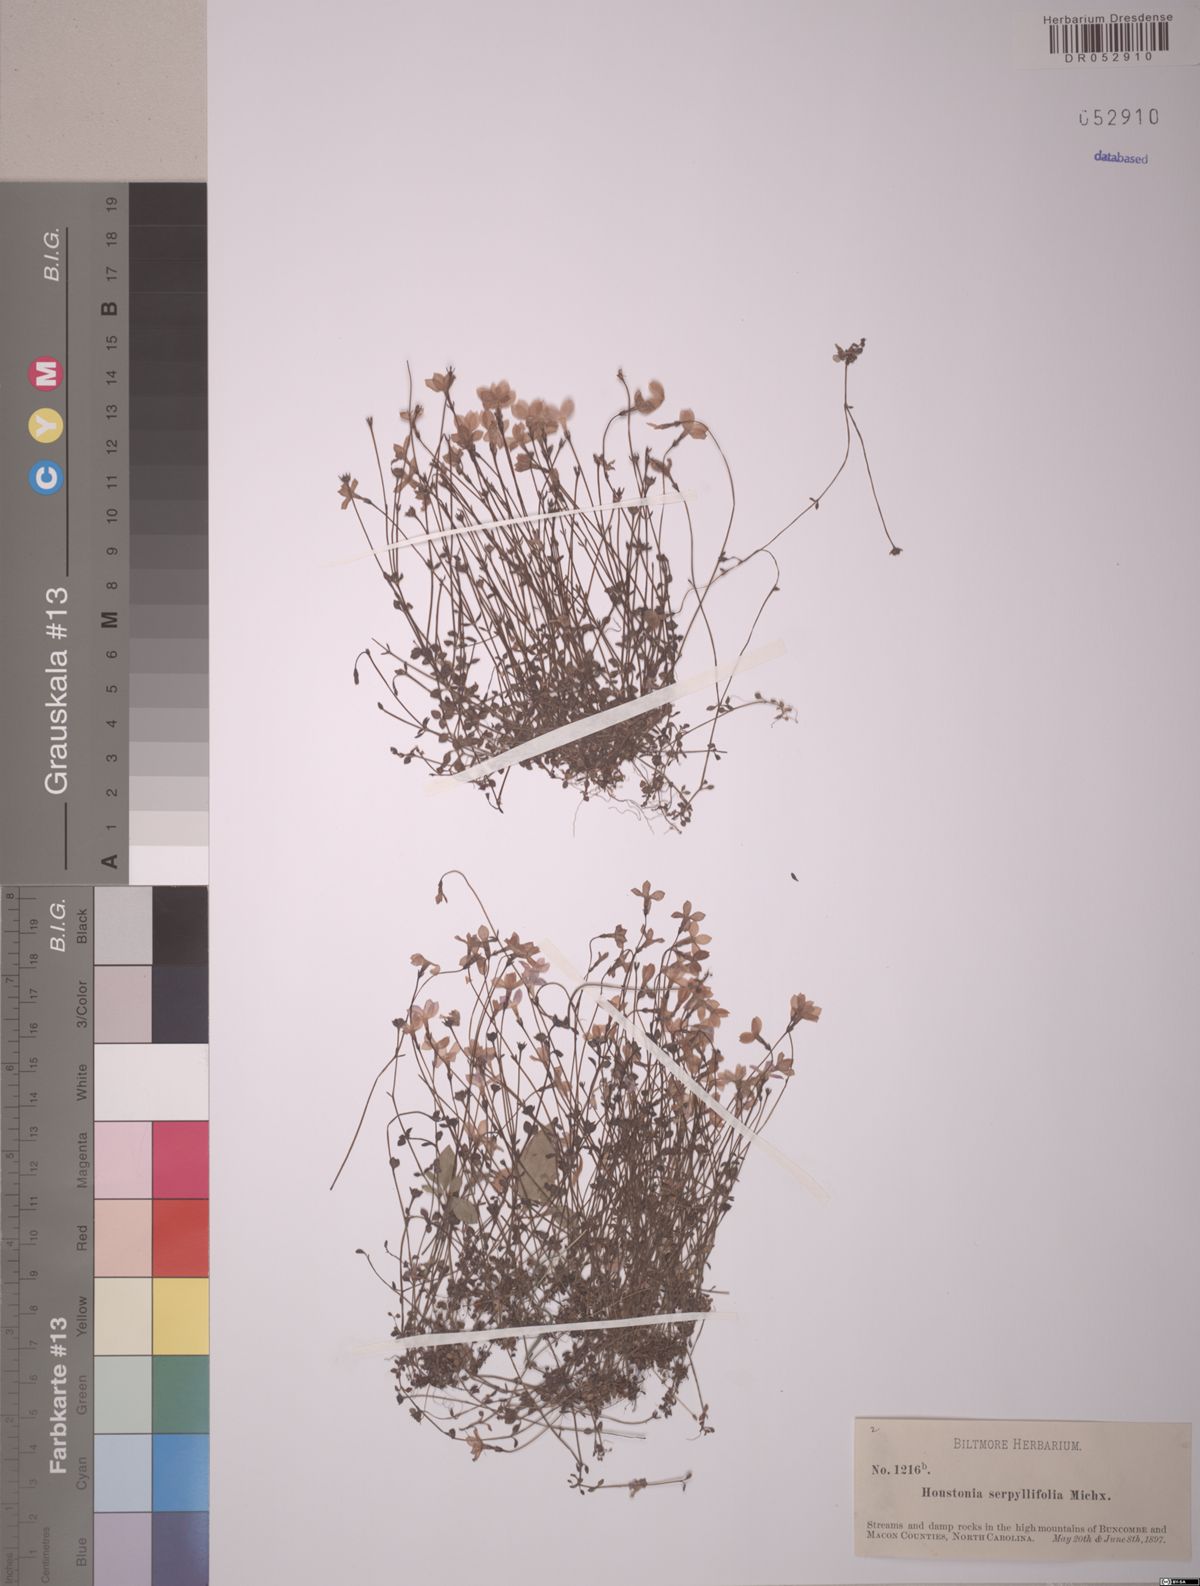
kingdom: Plantae
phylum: Tracheophyta
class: Magnoliopsida
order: Gentianales
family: Rubiaceae
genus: Houstonia
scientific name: Houstonia serpyllifolia
